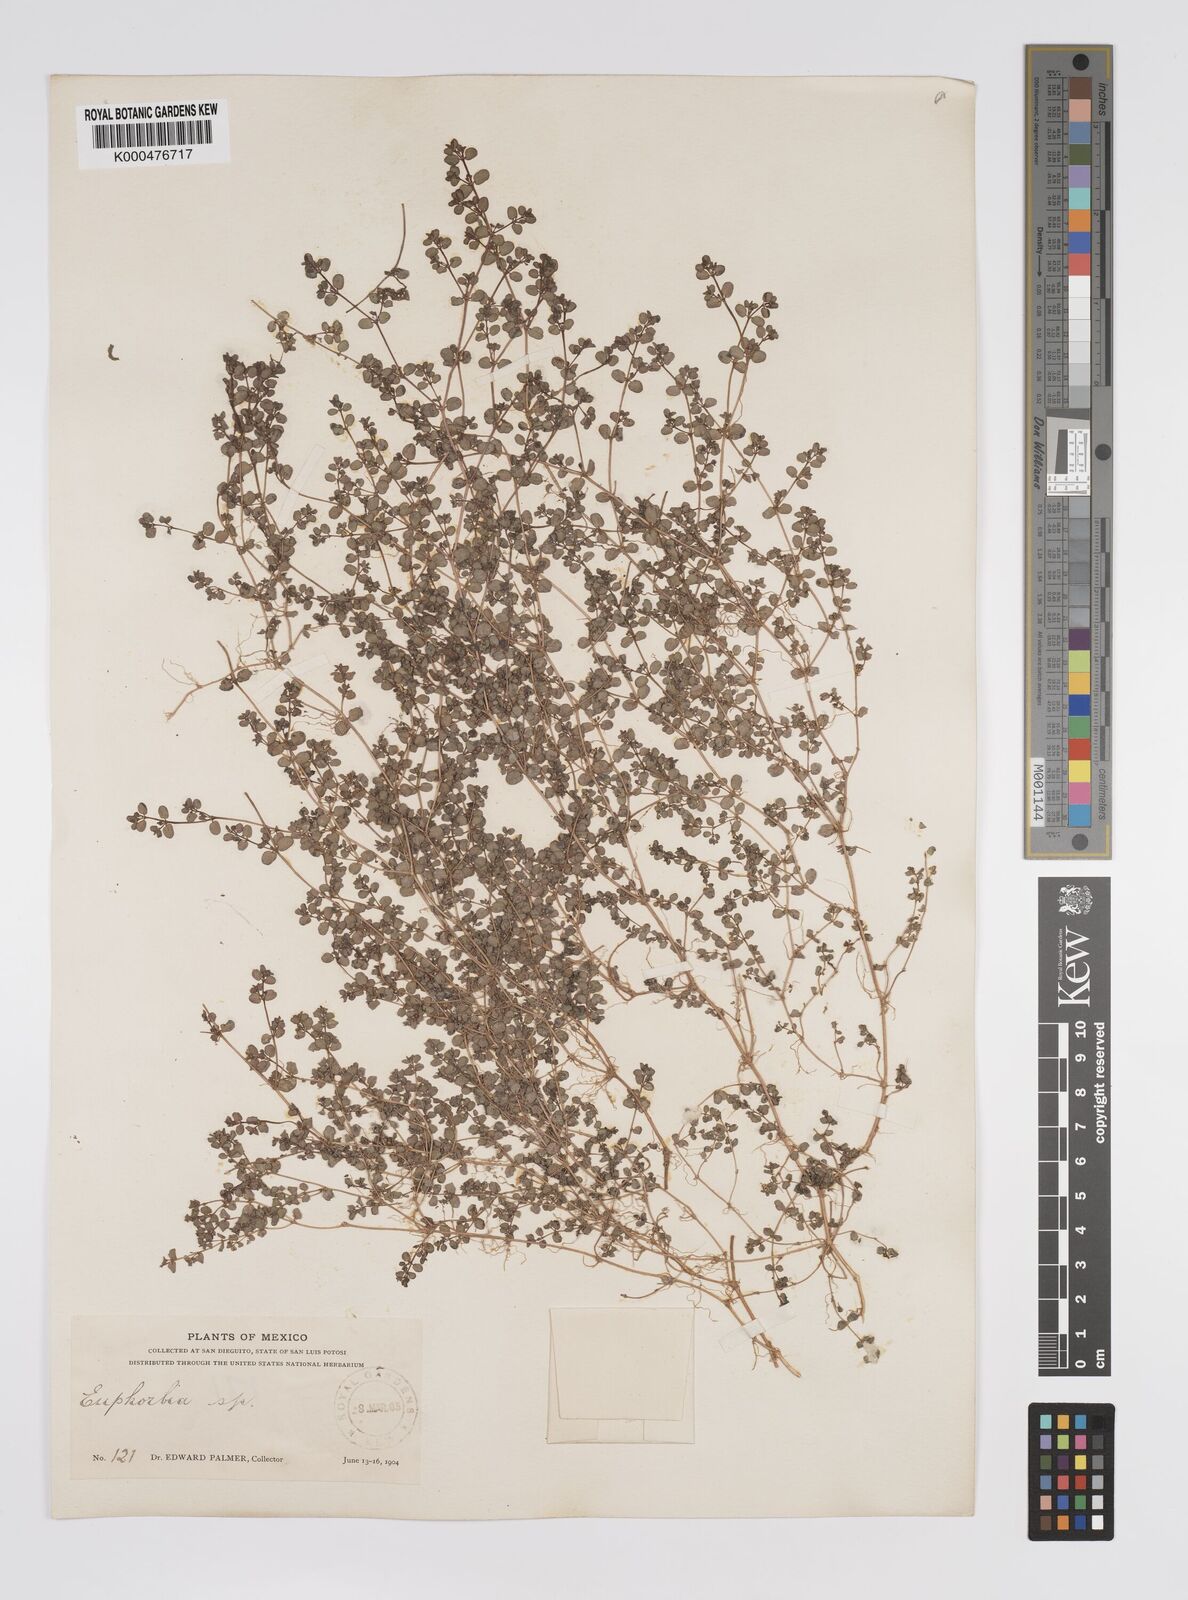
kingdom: Plantae
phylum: Tracheophyta
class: Magnoliopsida
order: Malpighiales
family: Euphorbiaceae
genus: Euphorbia
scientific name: Euphorbia
